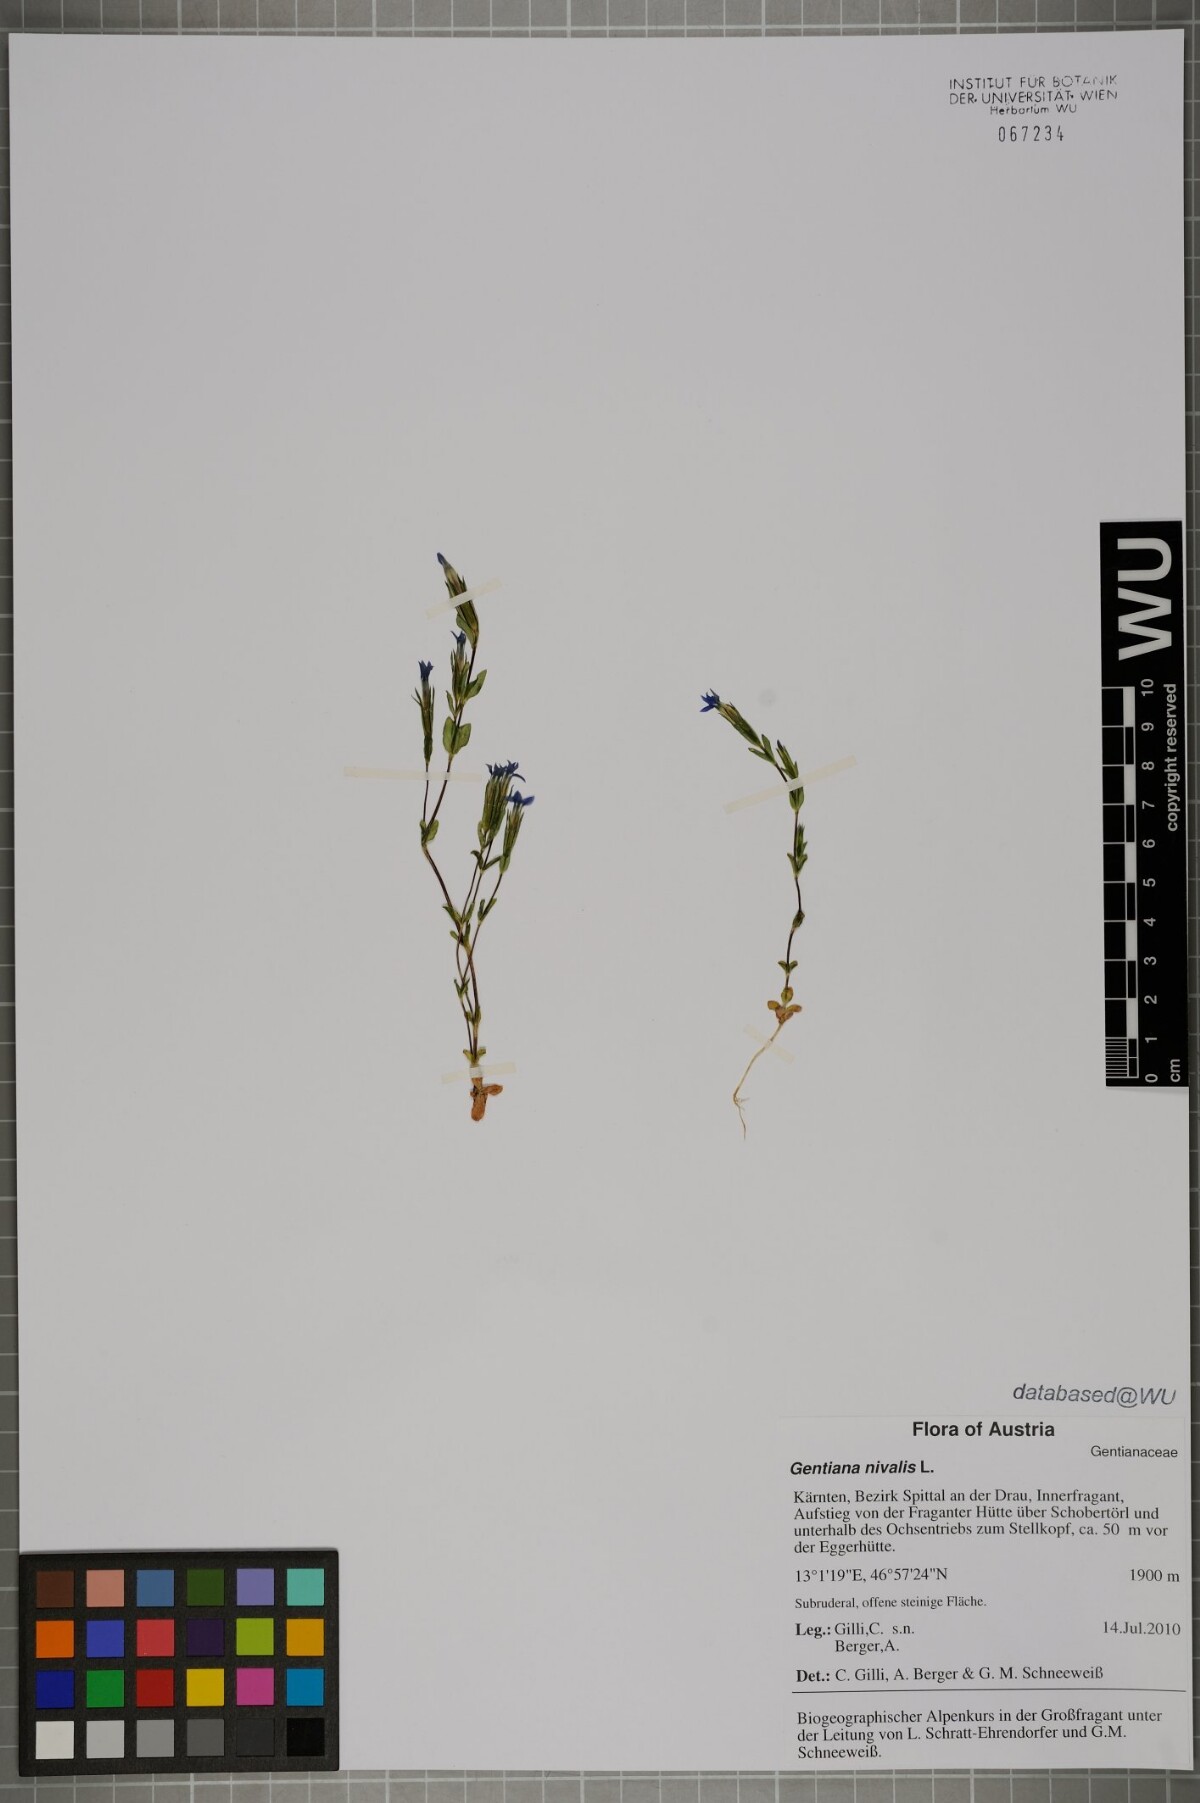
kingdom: Plantae
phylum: Tracheophyta
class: Magnoliopsida
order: Gentianales
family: Gentianaceae
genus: Gentiana
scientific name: Gentiana nivalis
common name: Alpine gentian
